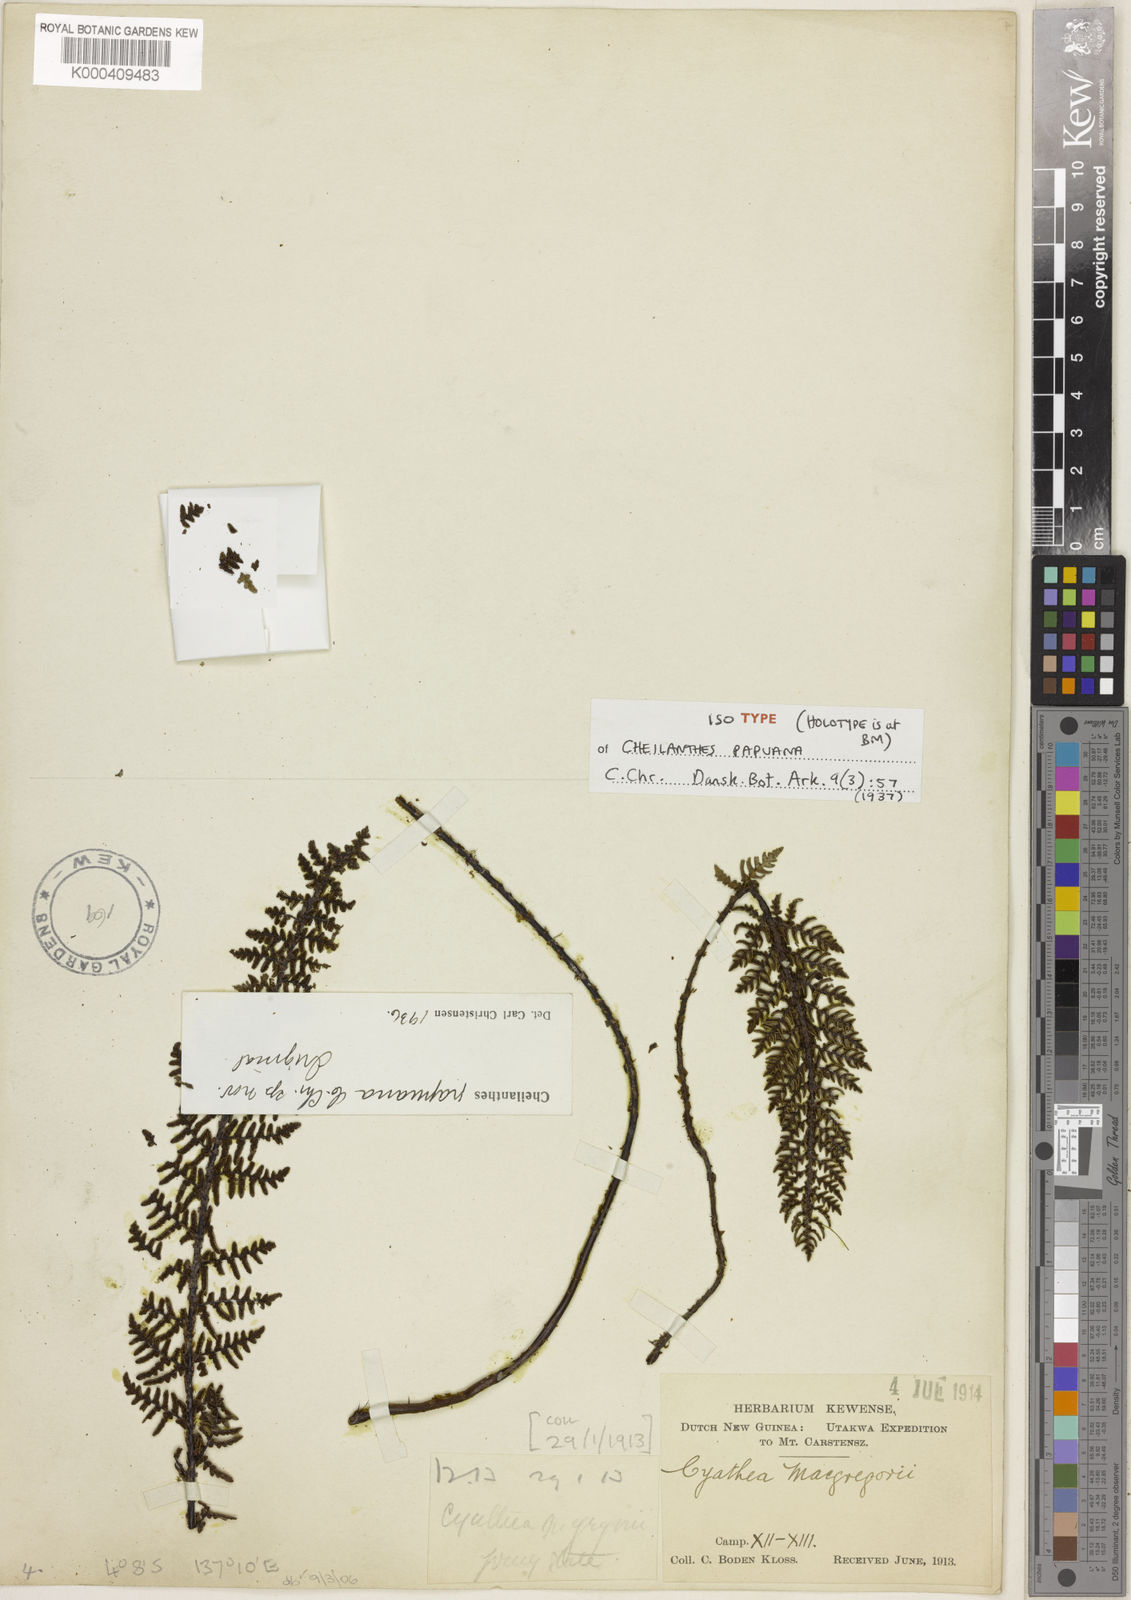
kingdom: Plantae
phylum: Tracheophyta
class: Polypodiopsida
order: Polypodiales
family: Pteridaceae
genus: Aleuritopteris
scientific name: Aleuritopteris papuana
